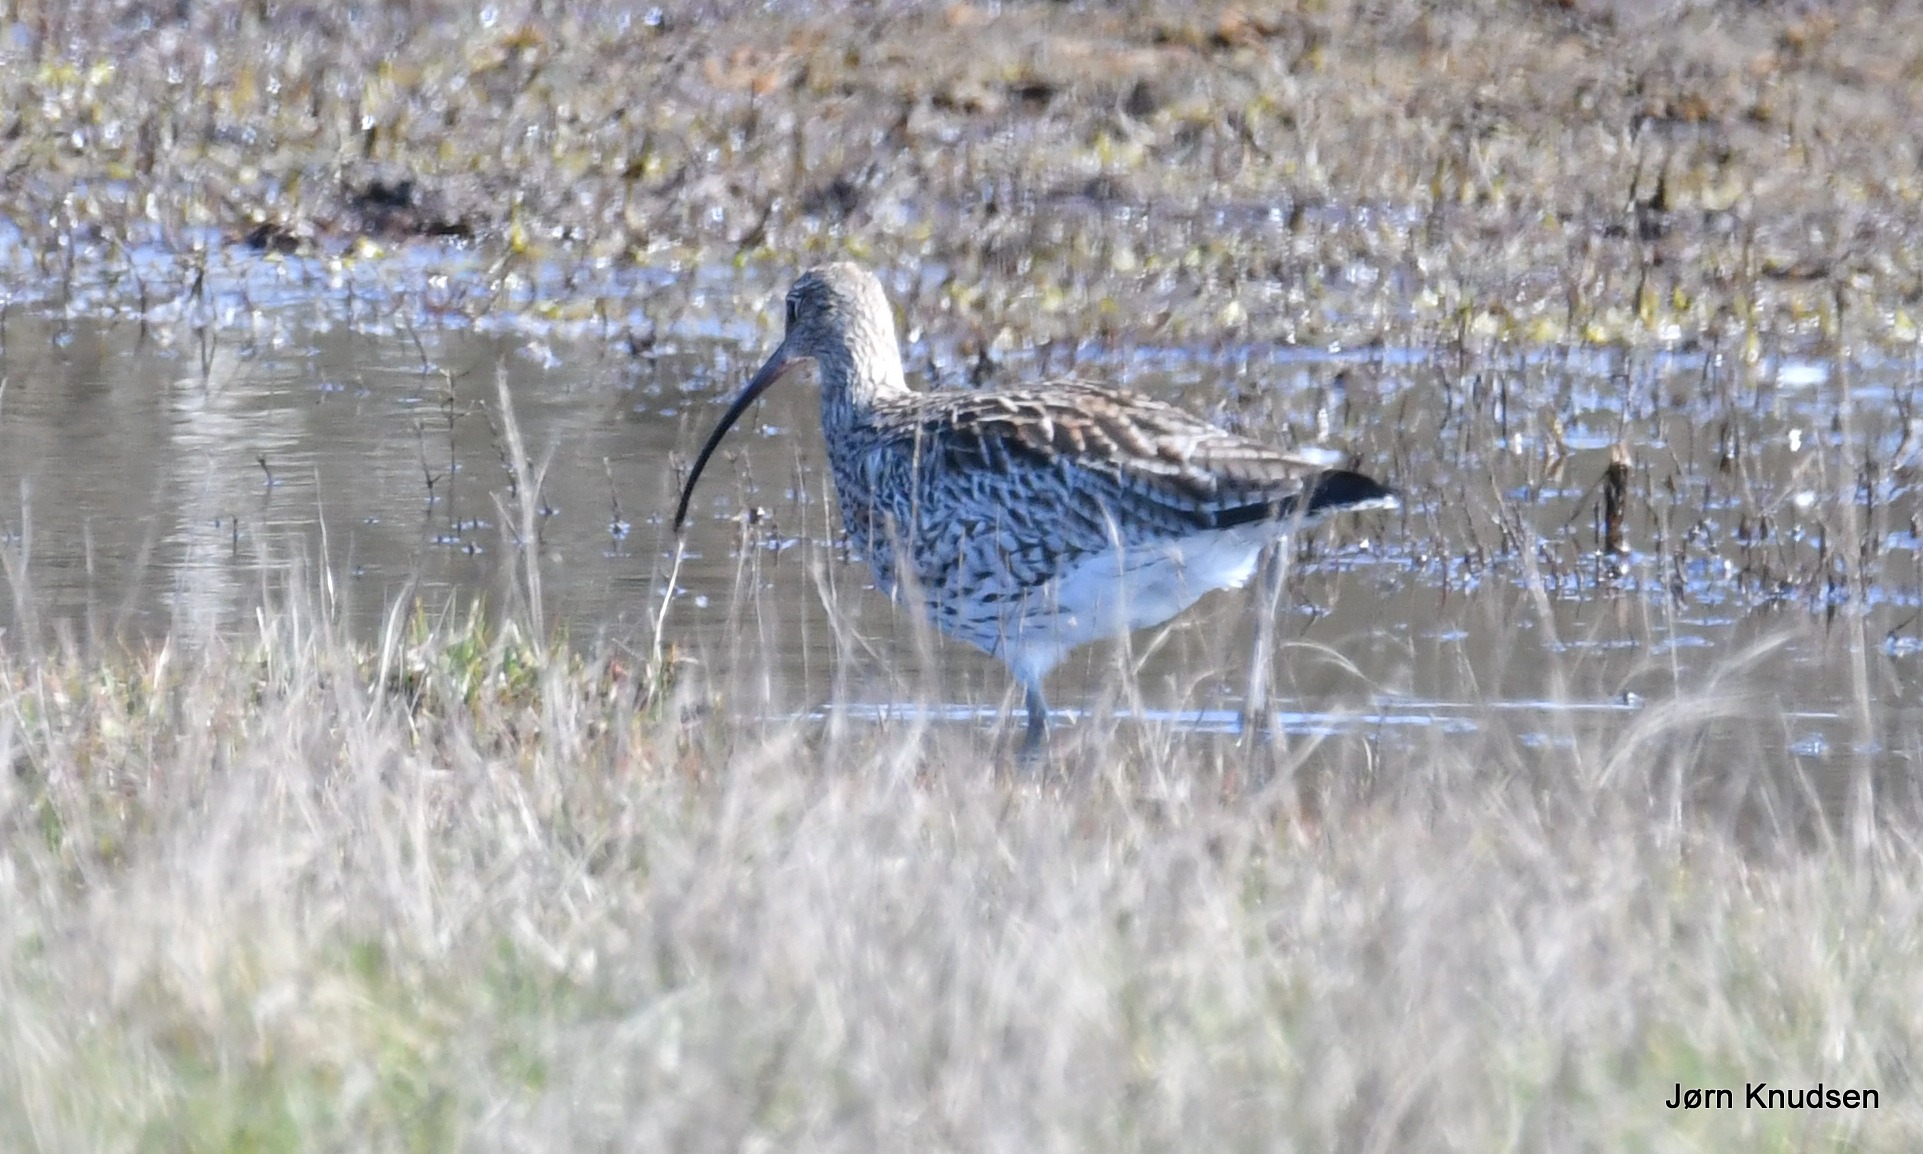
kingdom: Animalia
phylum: Chordata
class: Aves
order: Charadriiformes
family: Scolopacidae
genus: Numenius
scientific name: Numenius arquata
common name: Storspove
